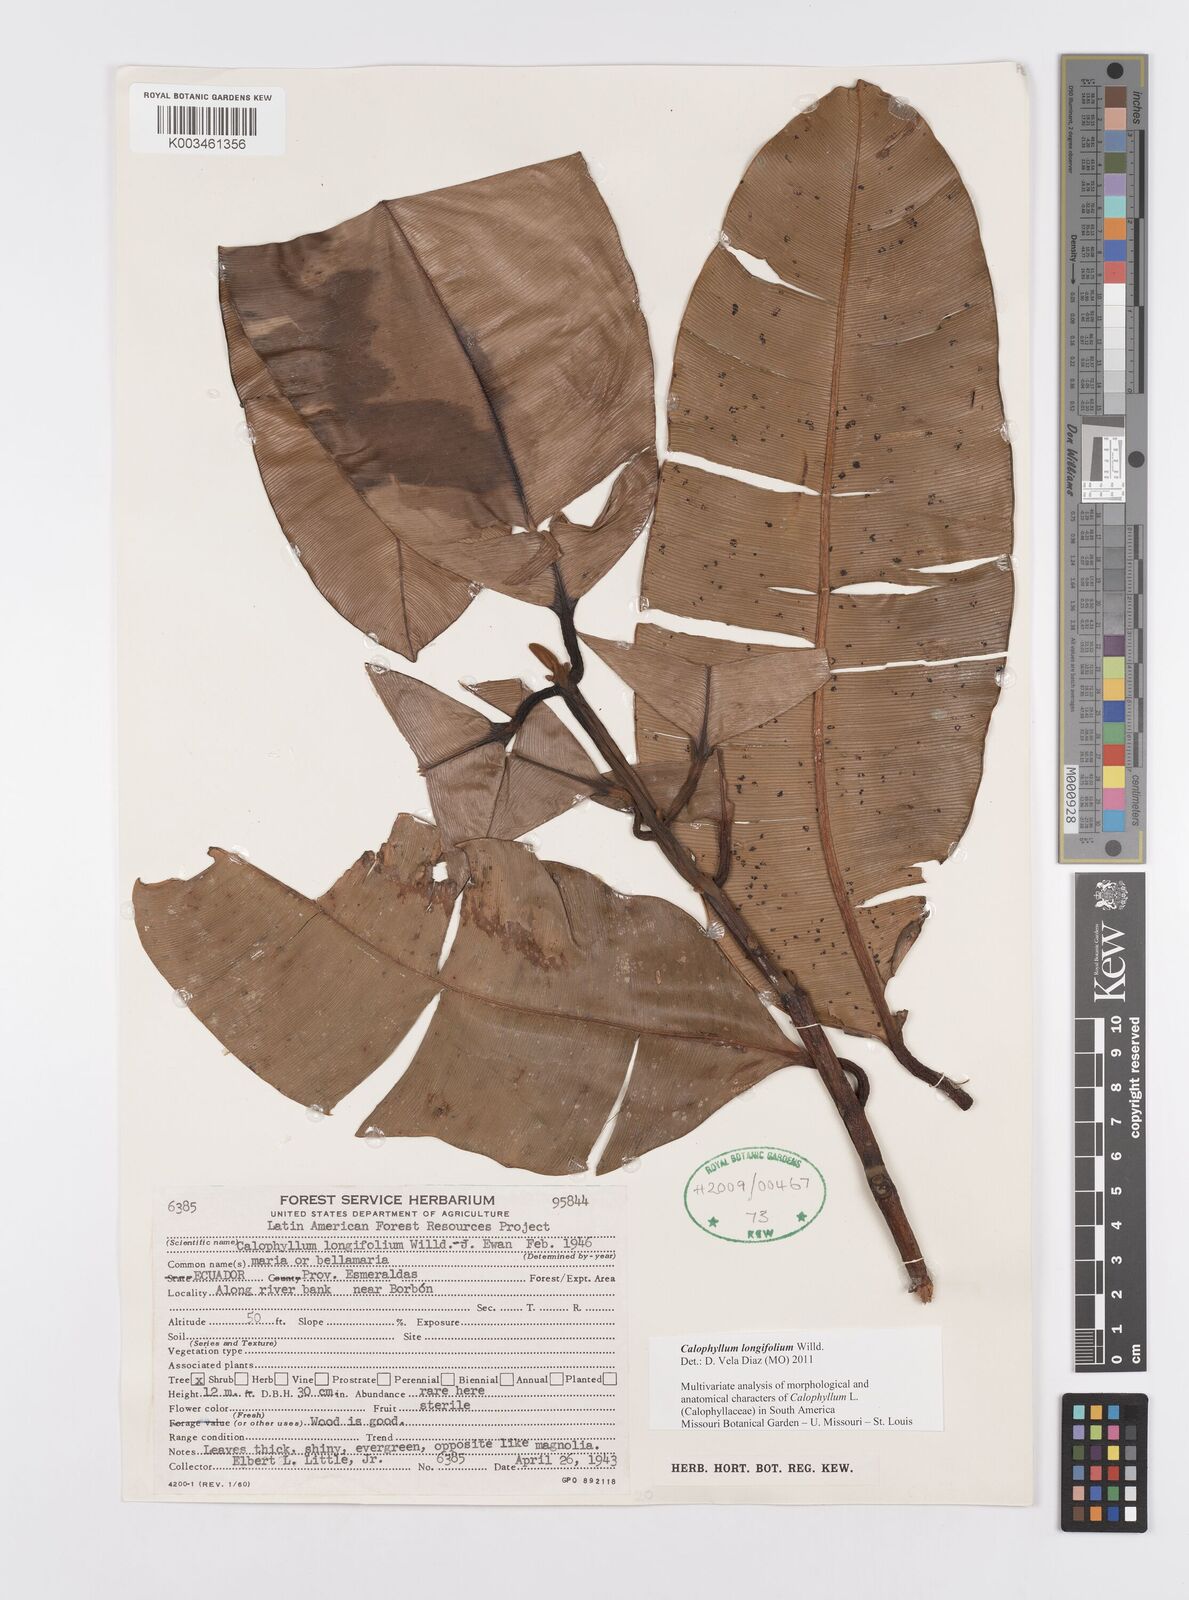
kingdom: Plantae
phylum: Tracheophyta
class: Magnoliopsida
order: Malpighiales
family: Calophyllaceae
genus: Calophyllum
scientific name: Calophyllum longifolium
